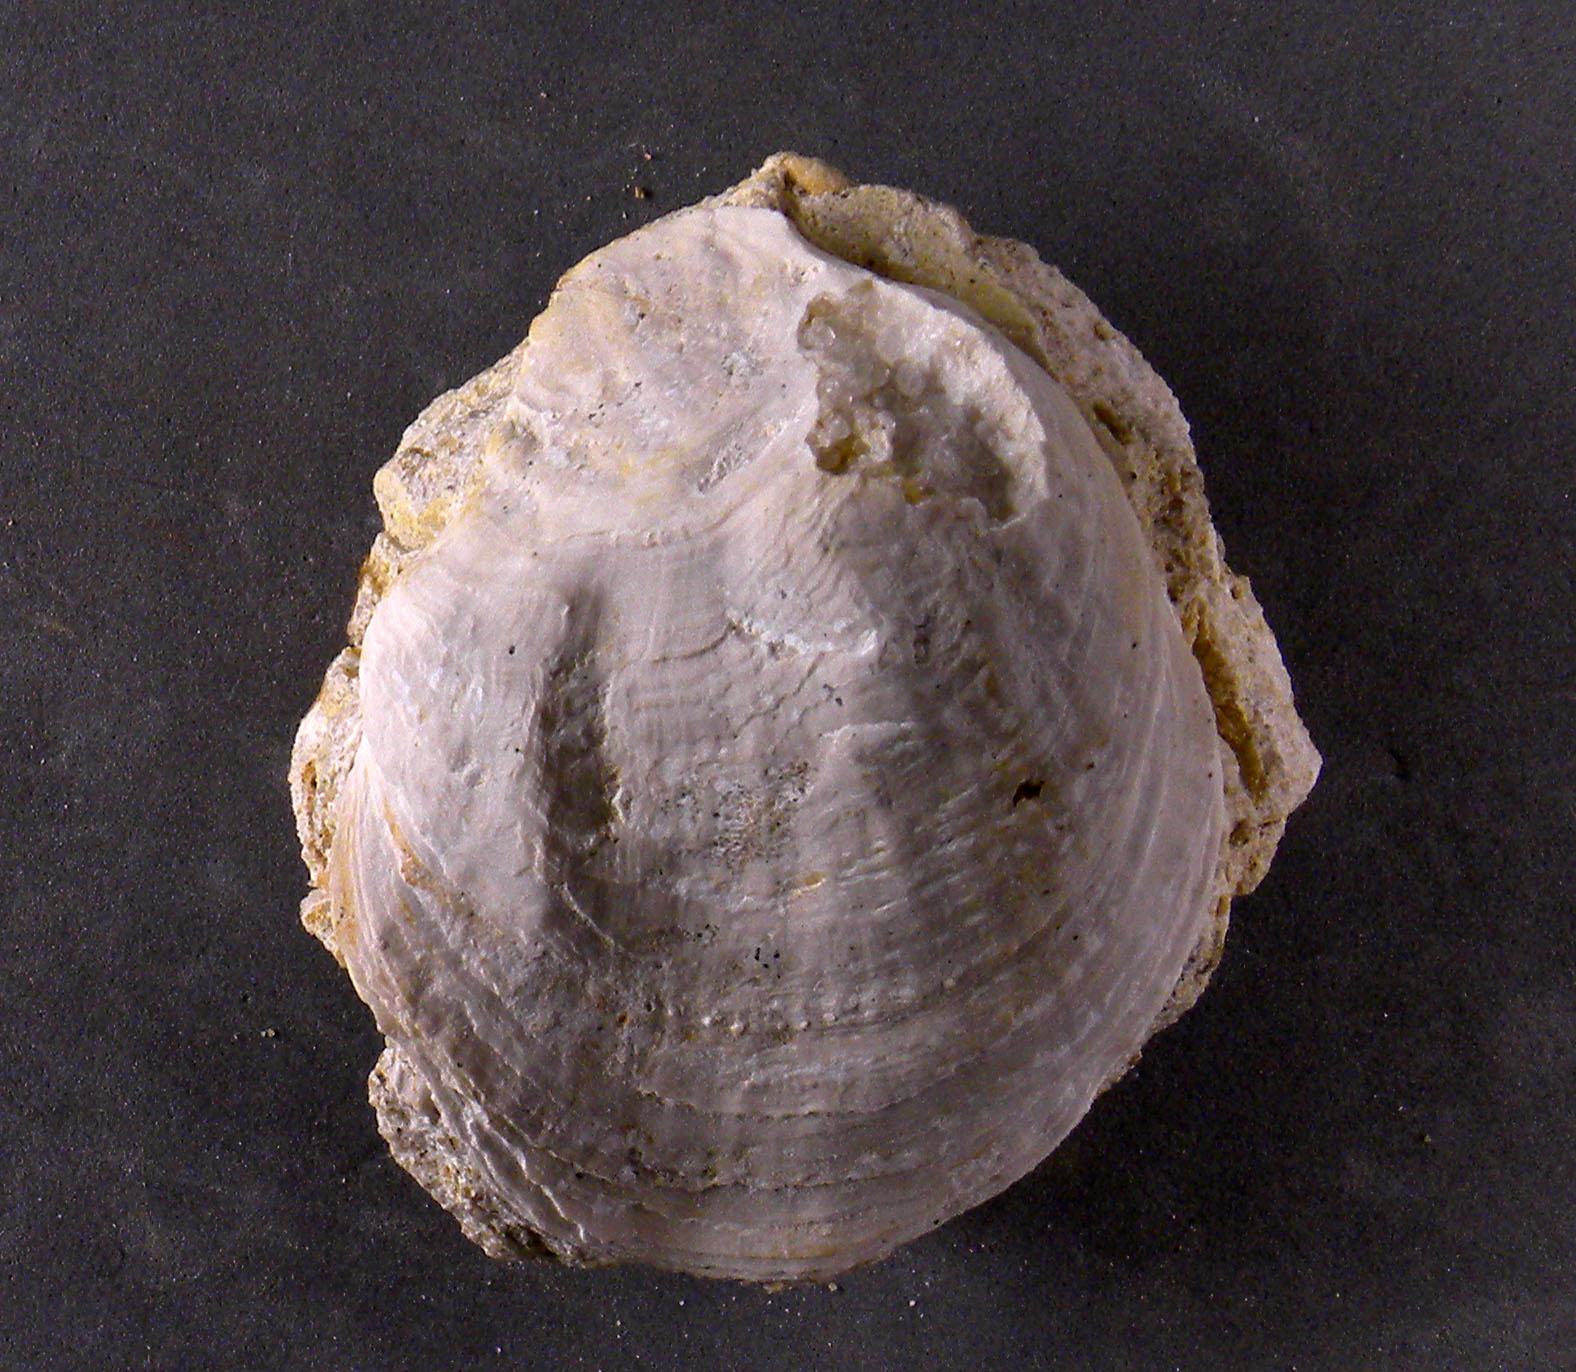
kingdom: Animalia
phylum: Mollusca
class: Bivalvia
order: Ostreida
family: Ostreidae
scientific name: Ostreidae
